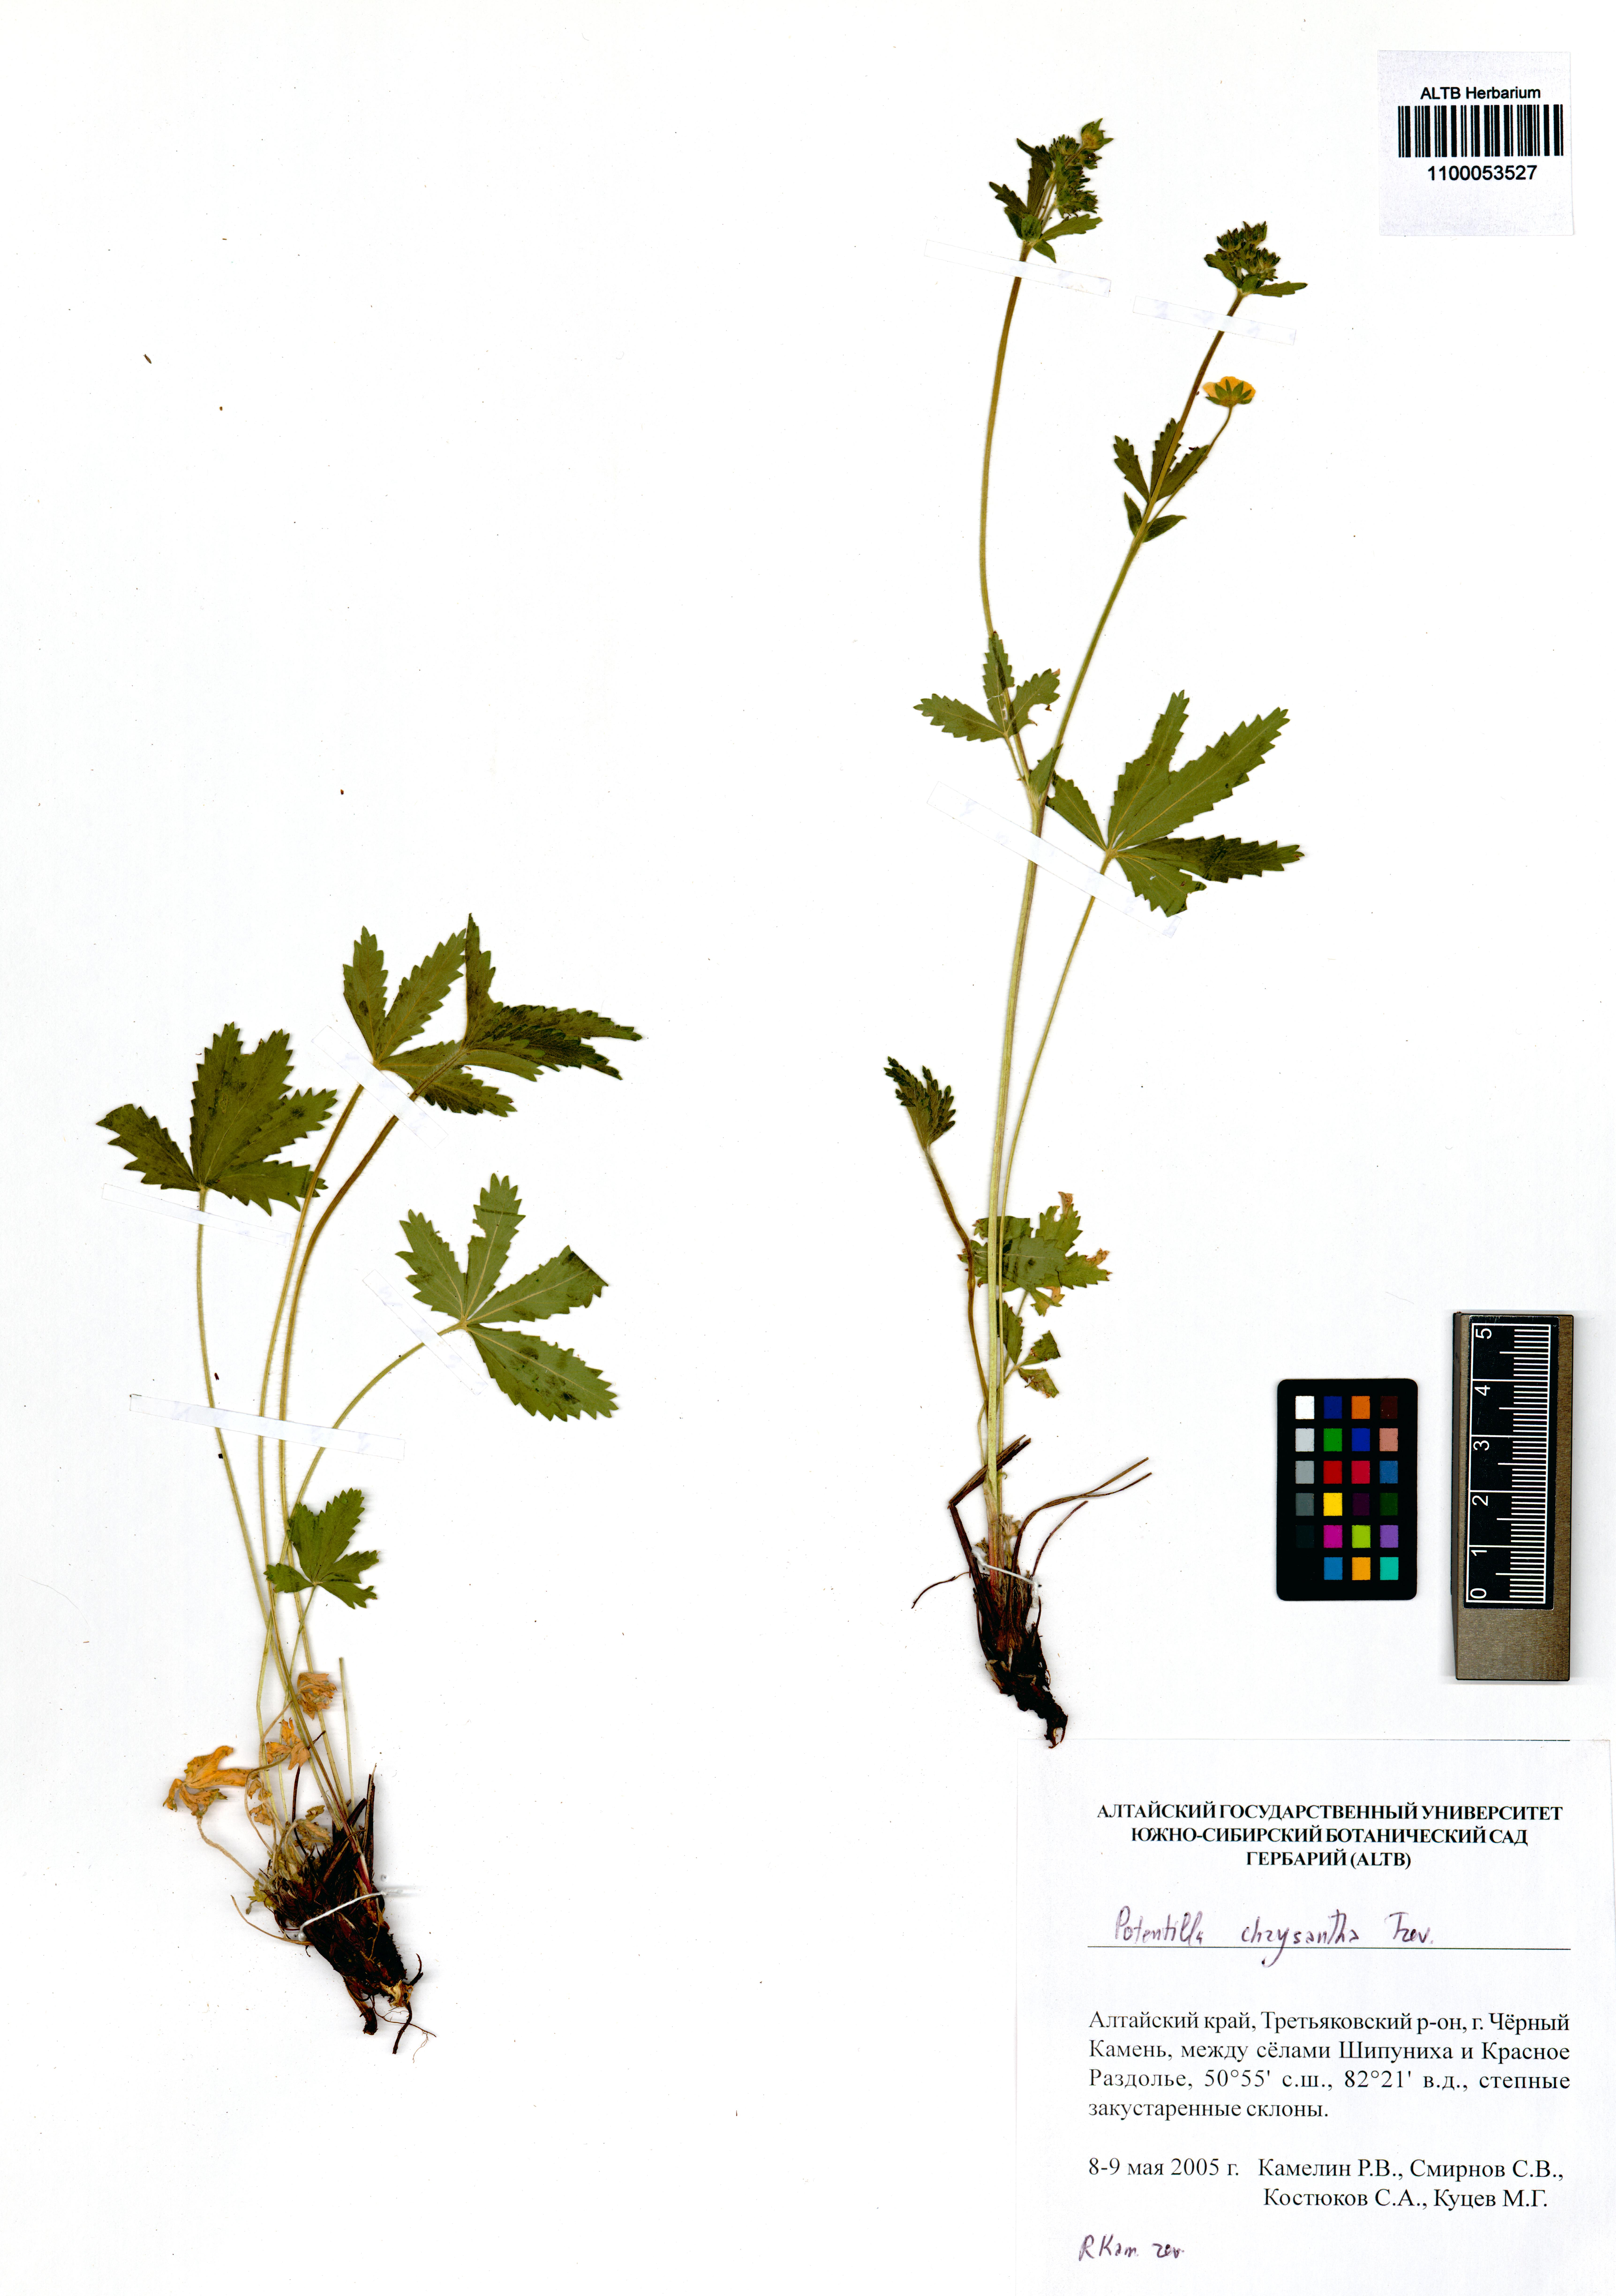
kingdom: Plantae
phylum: Tracheophyta
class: Magnoliopsida
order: Rosales
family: Rosaceae
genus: Potentilla
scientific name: Potentilla chrysantha
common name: Thuringian cinquefoil
